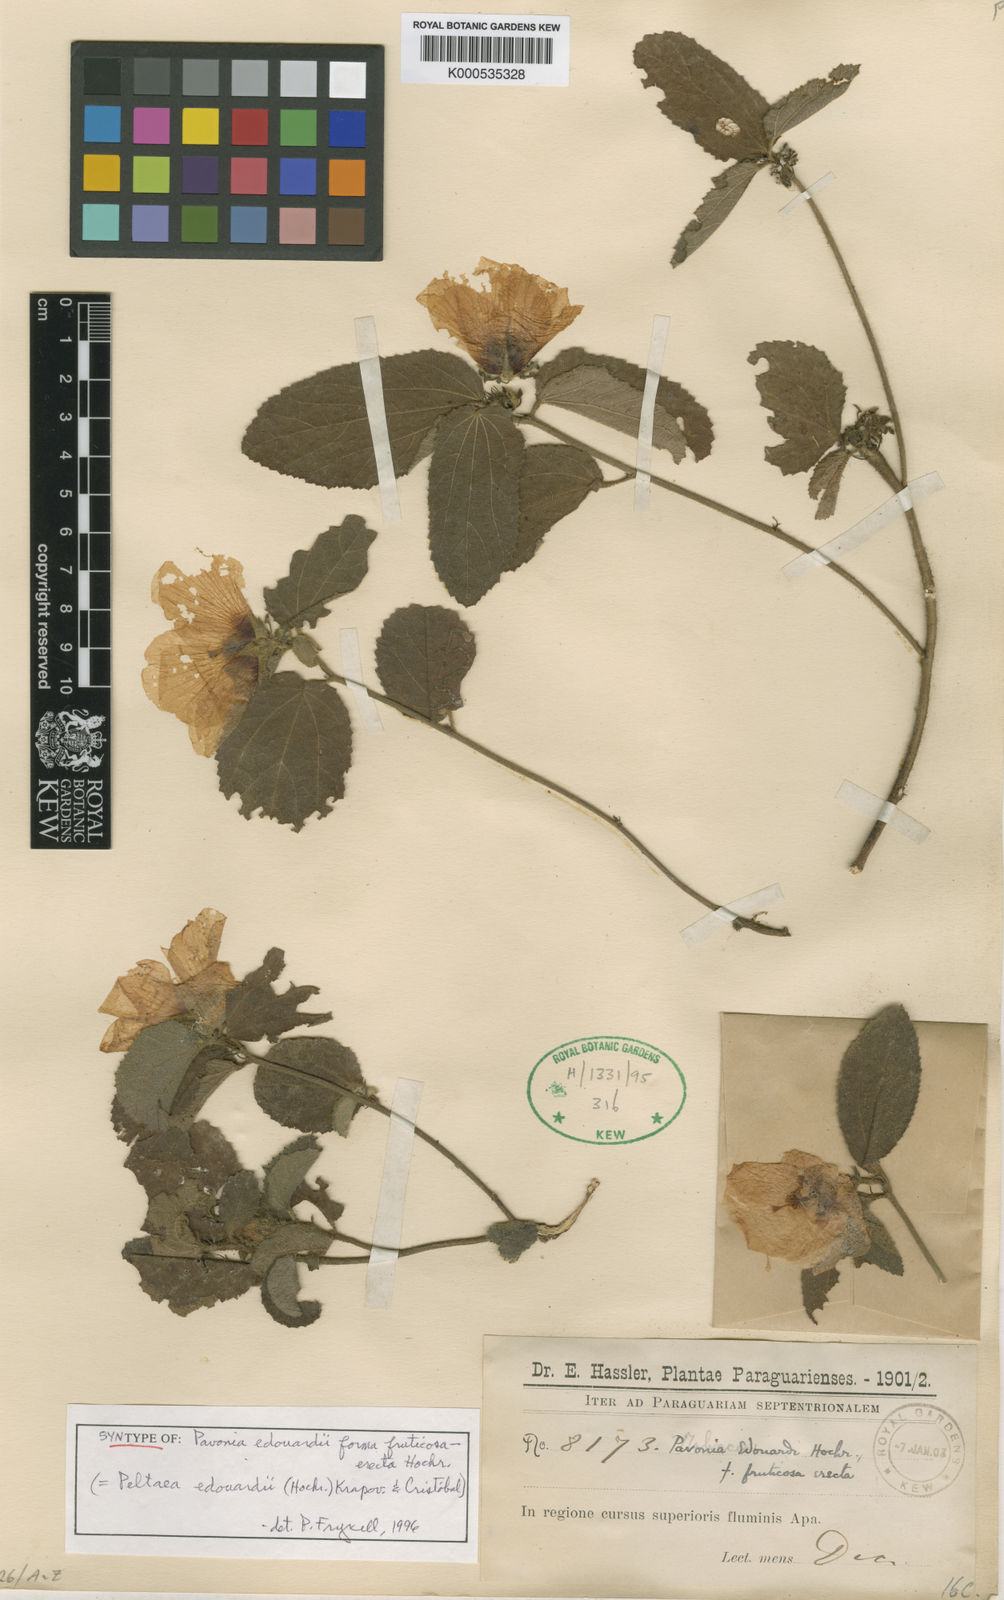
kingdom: Plantae
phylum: Tracheophyta
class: Magnoliopsida
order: Malvales
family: Malvaceae
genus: Peltaea
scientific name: Peltaea
